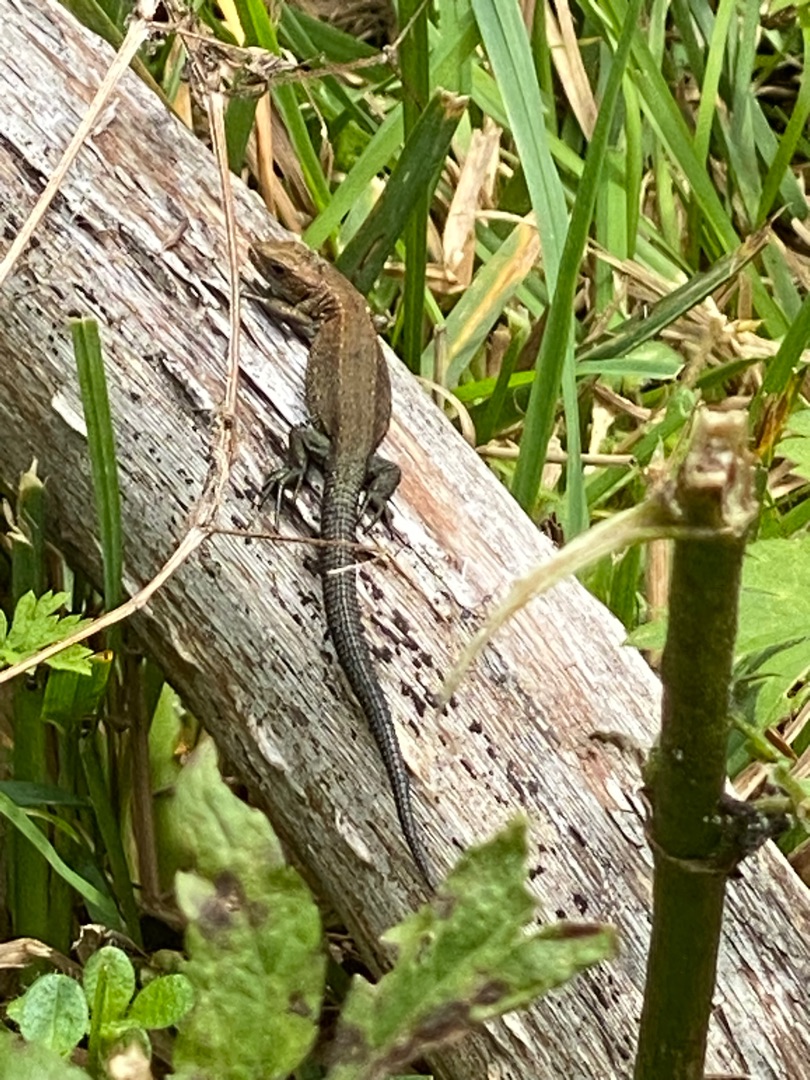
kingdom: Animalia
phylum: Chordata
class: Squamata
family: Lacertidae
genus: Zootoca
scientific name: Zootoca vivipara
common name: Skovfirben
